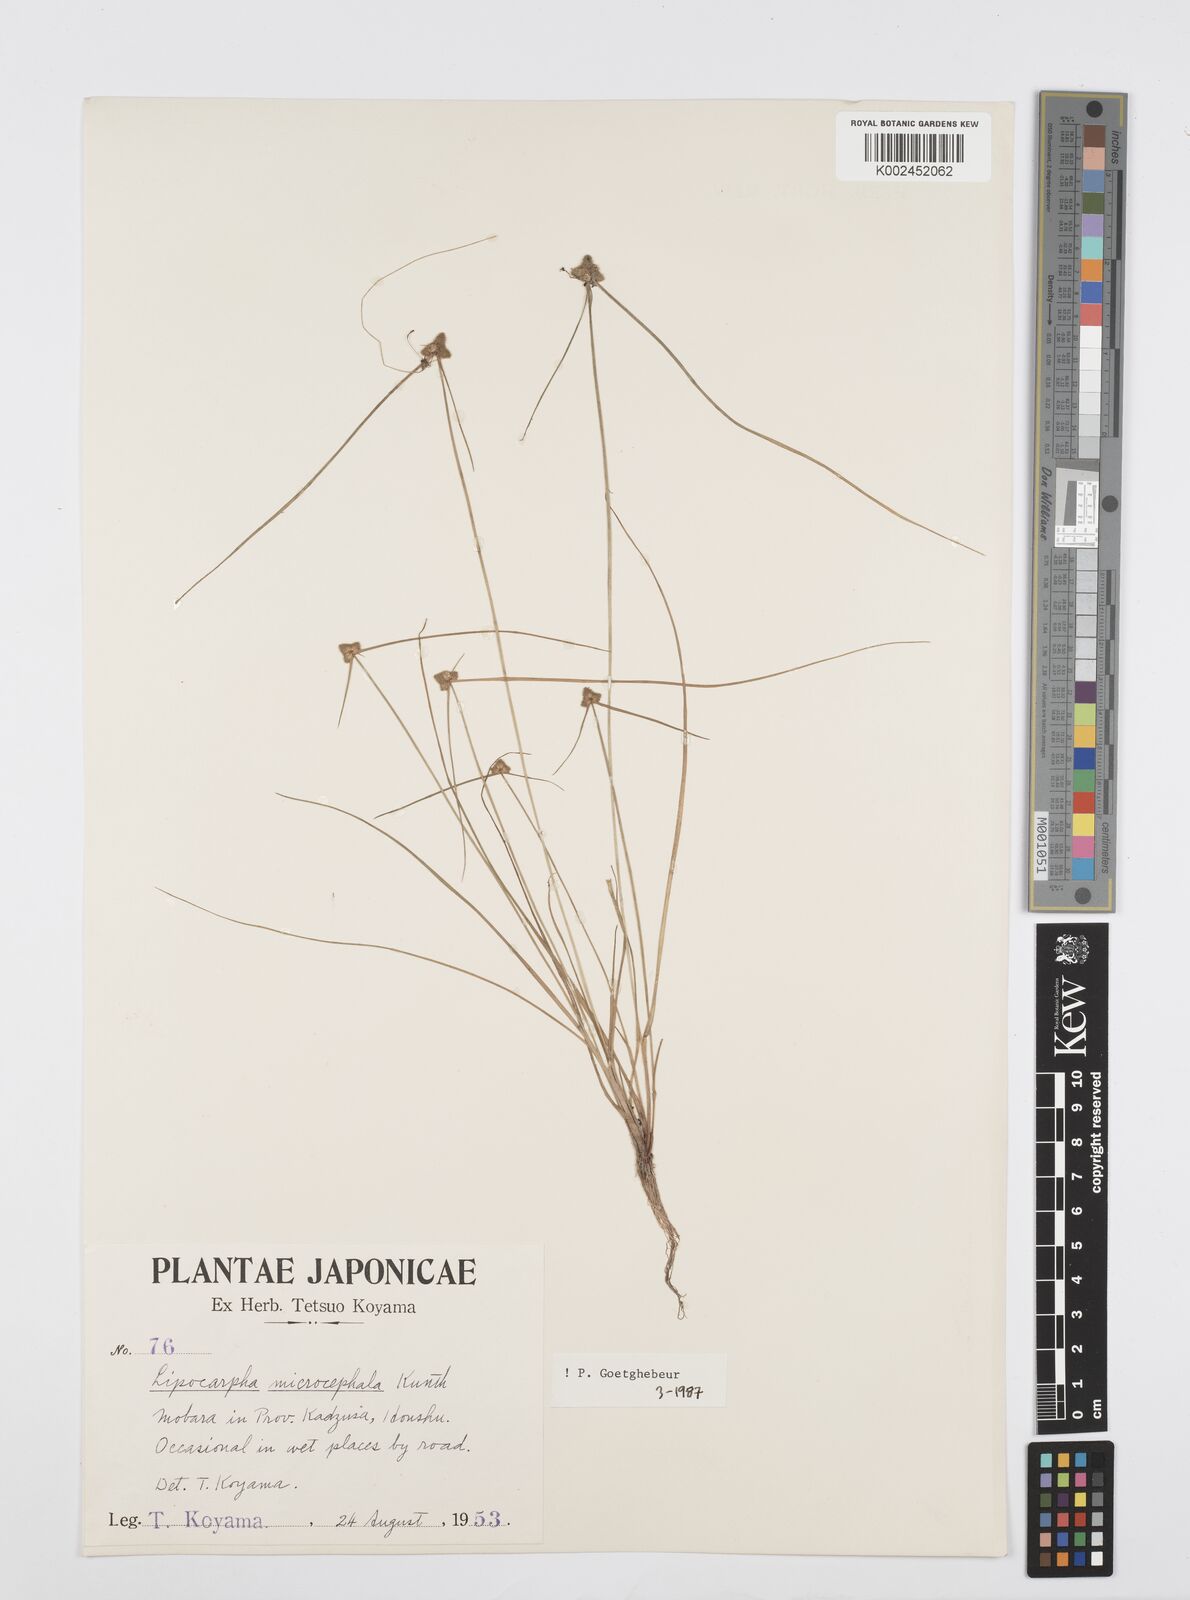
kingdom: Plantae
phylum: Tracheophyta
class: Liliopsida
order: Poales
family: Cyperaceae
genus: Cyperus
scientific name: Cyperus microcephalus
